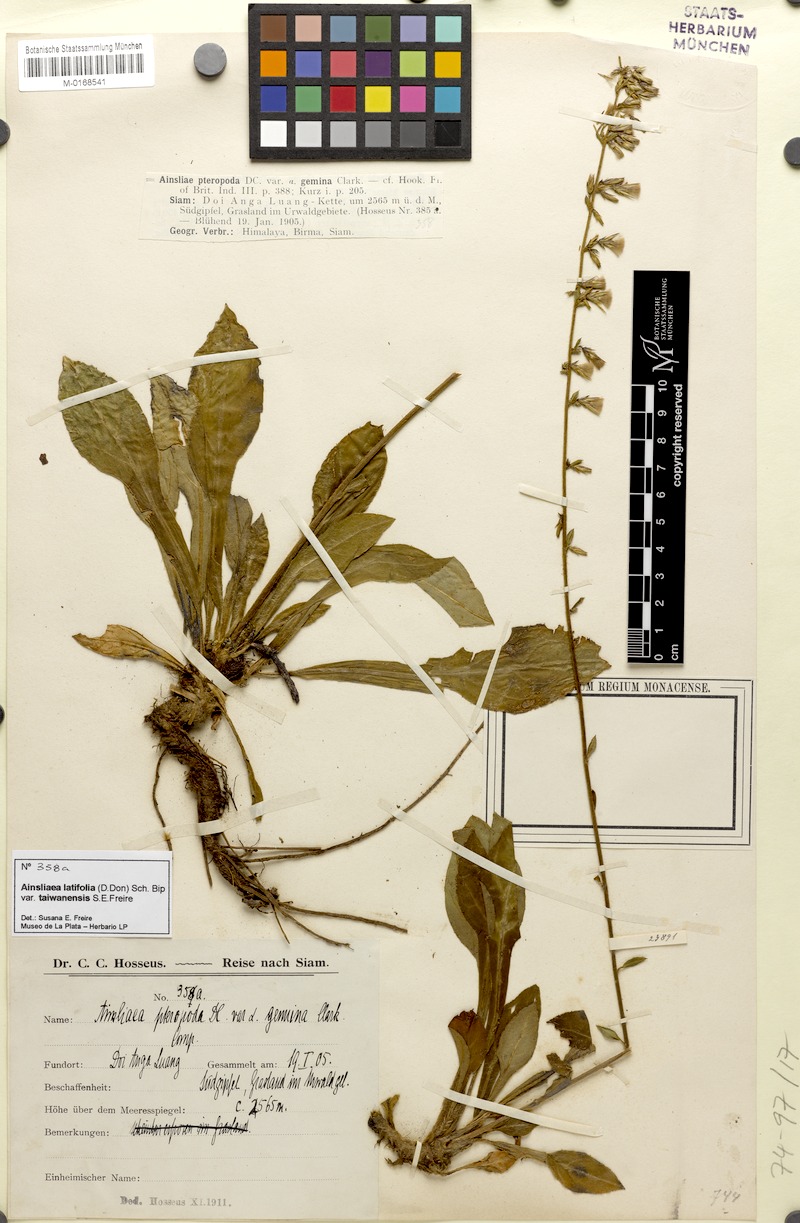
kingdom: Plantae
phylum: Tracheophyta
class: Magnoliopsida
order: Asterales
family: Asteraceae
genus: Ainsliaea
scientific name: Ainsliaea latifolia
